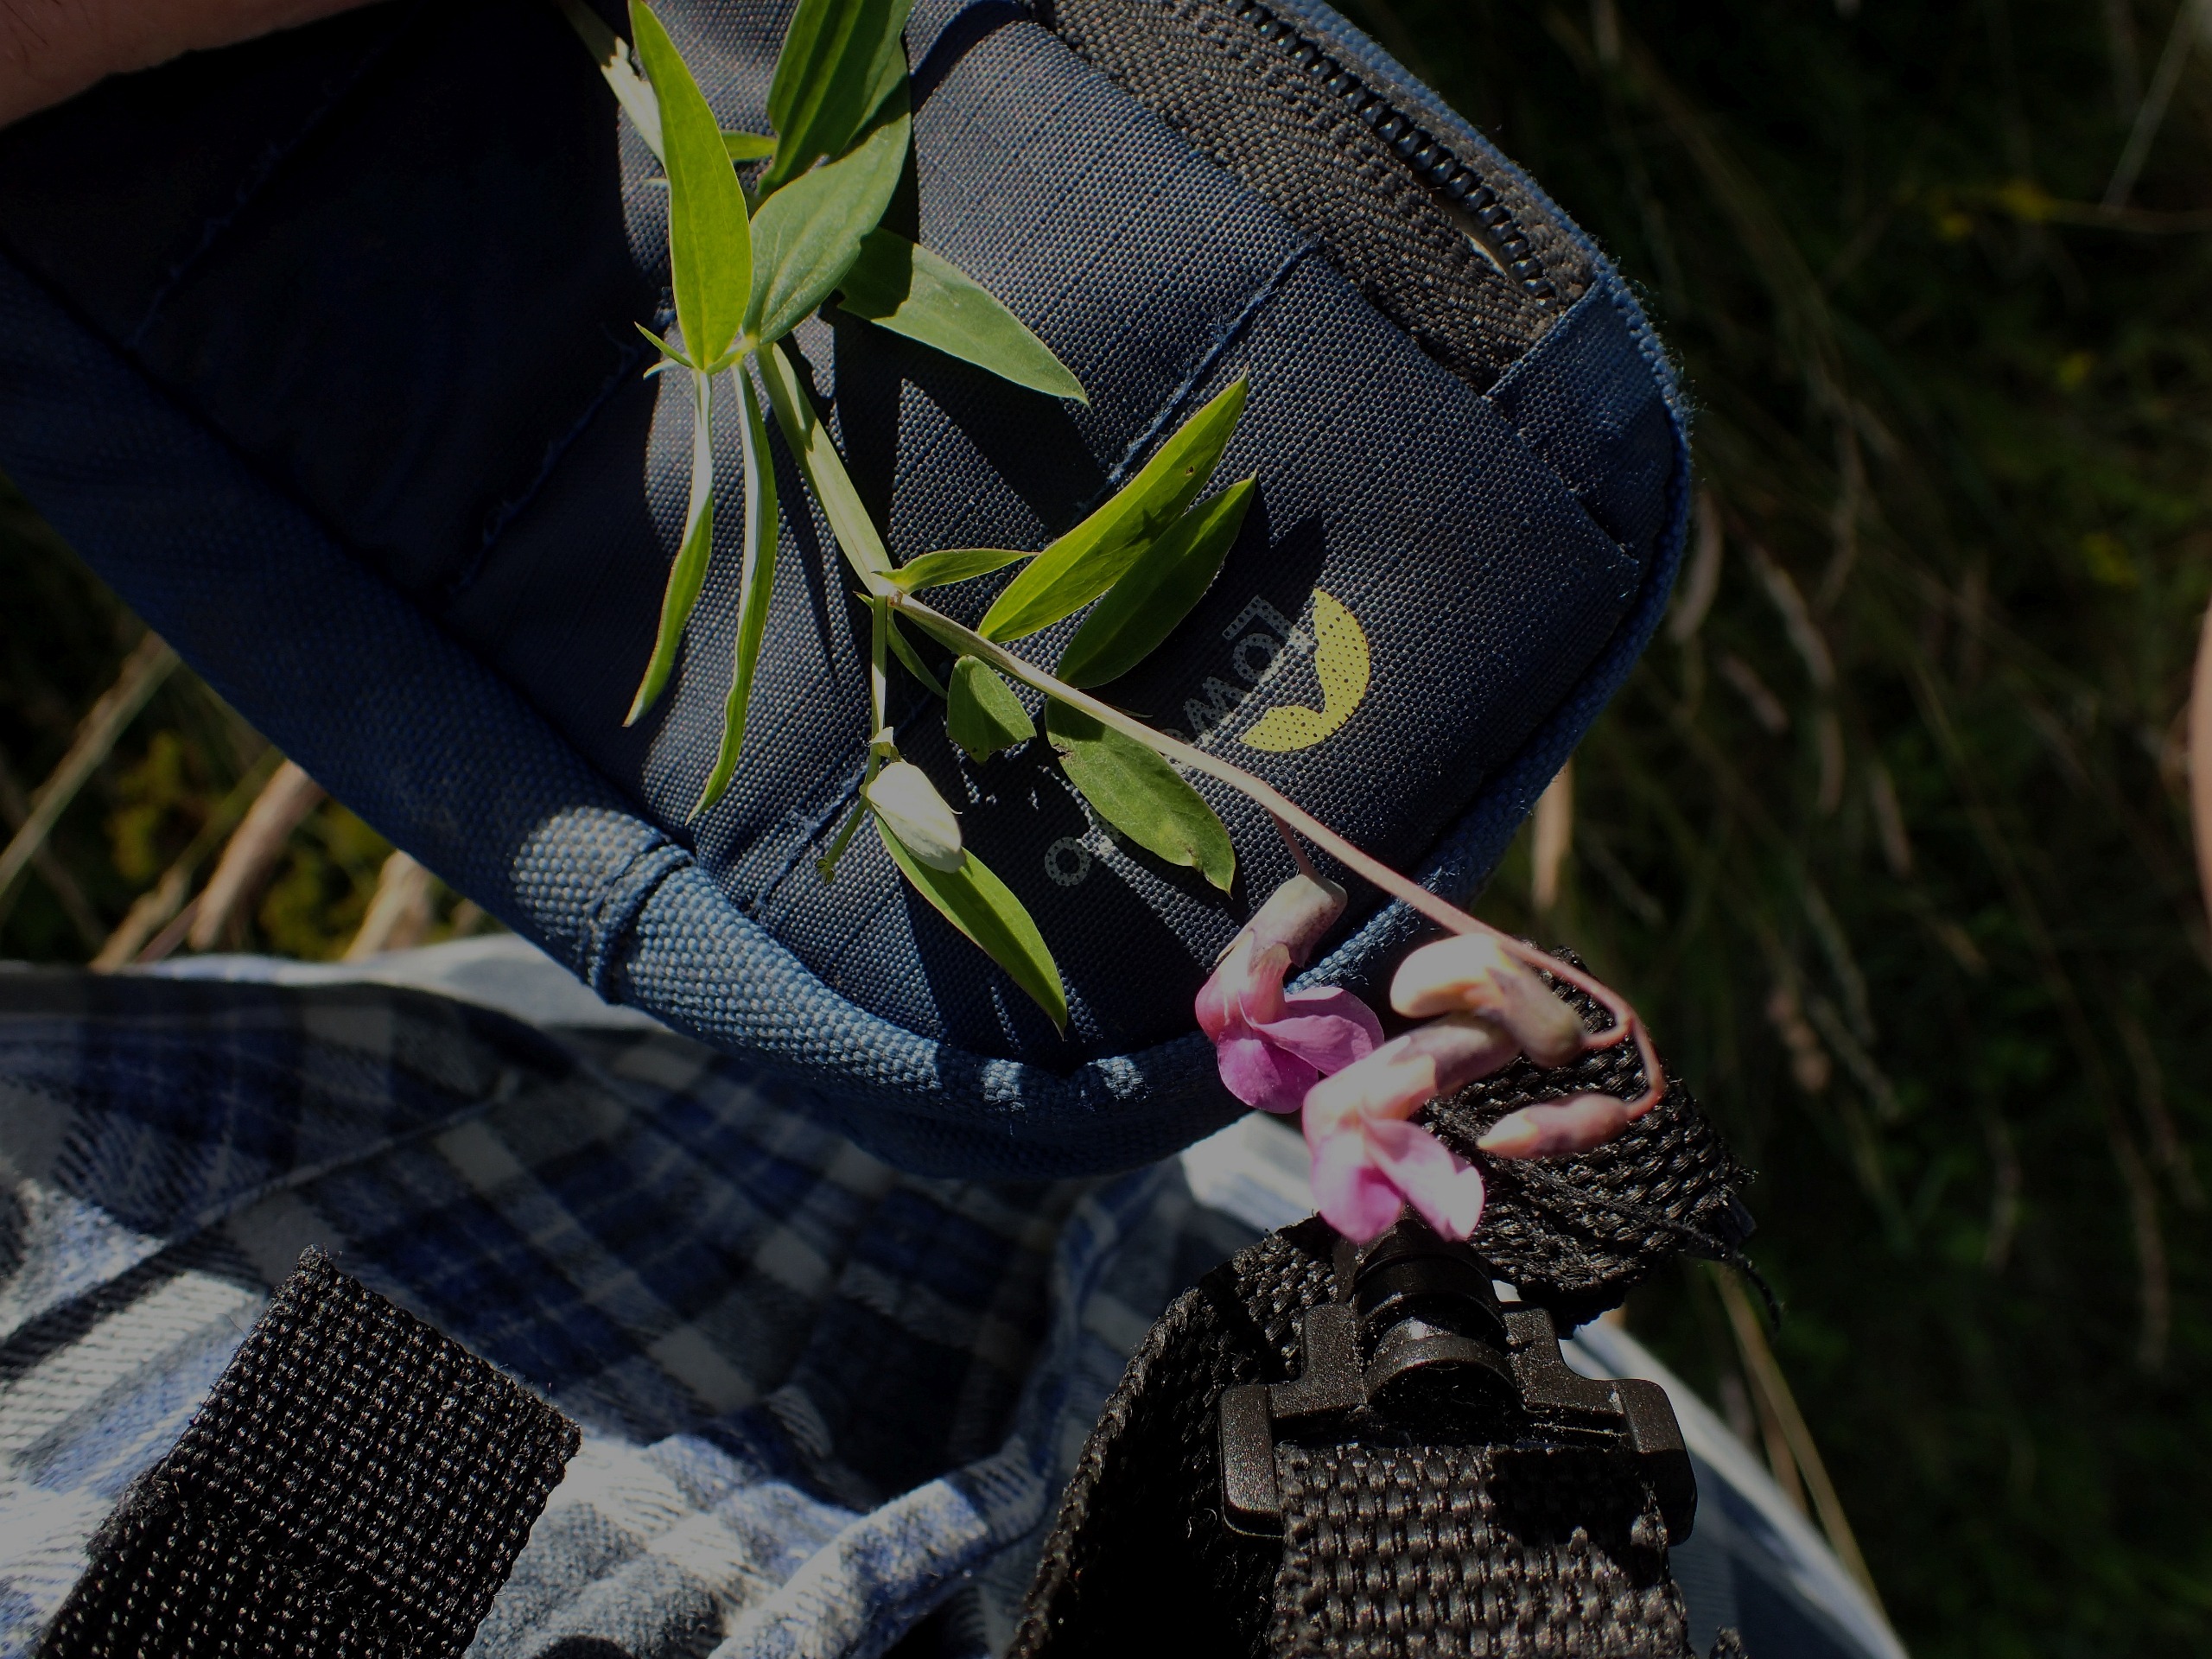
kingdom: Plantae
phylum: Tracheophyta
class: Magnoliopsida
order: Fabales
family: Fabaceae
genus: Lathyrus
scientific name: Lathyrus linifolius
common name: Krat-fladbælg
